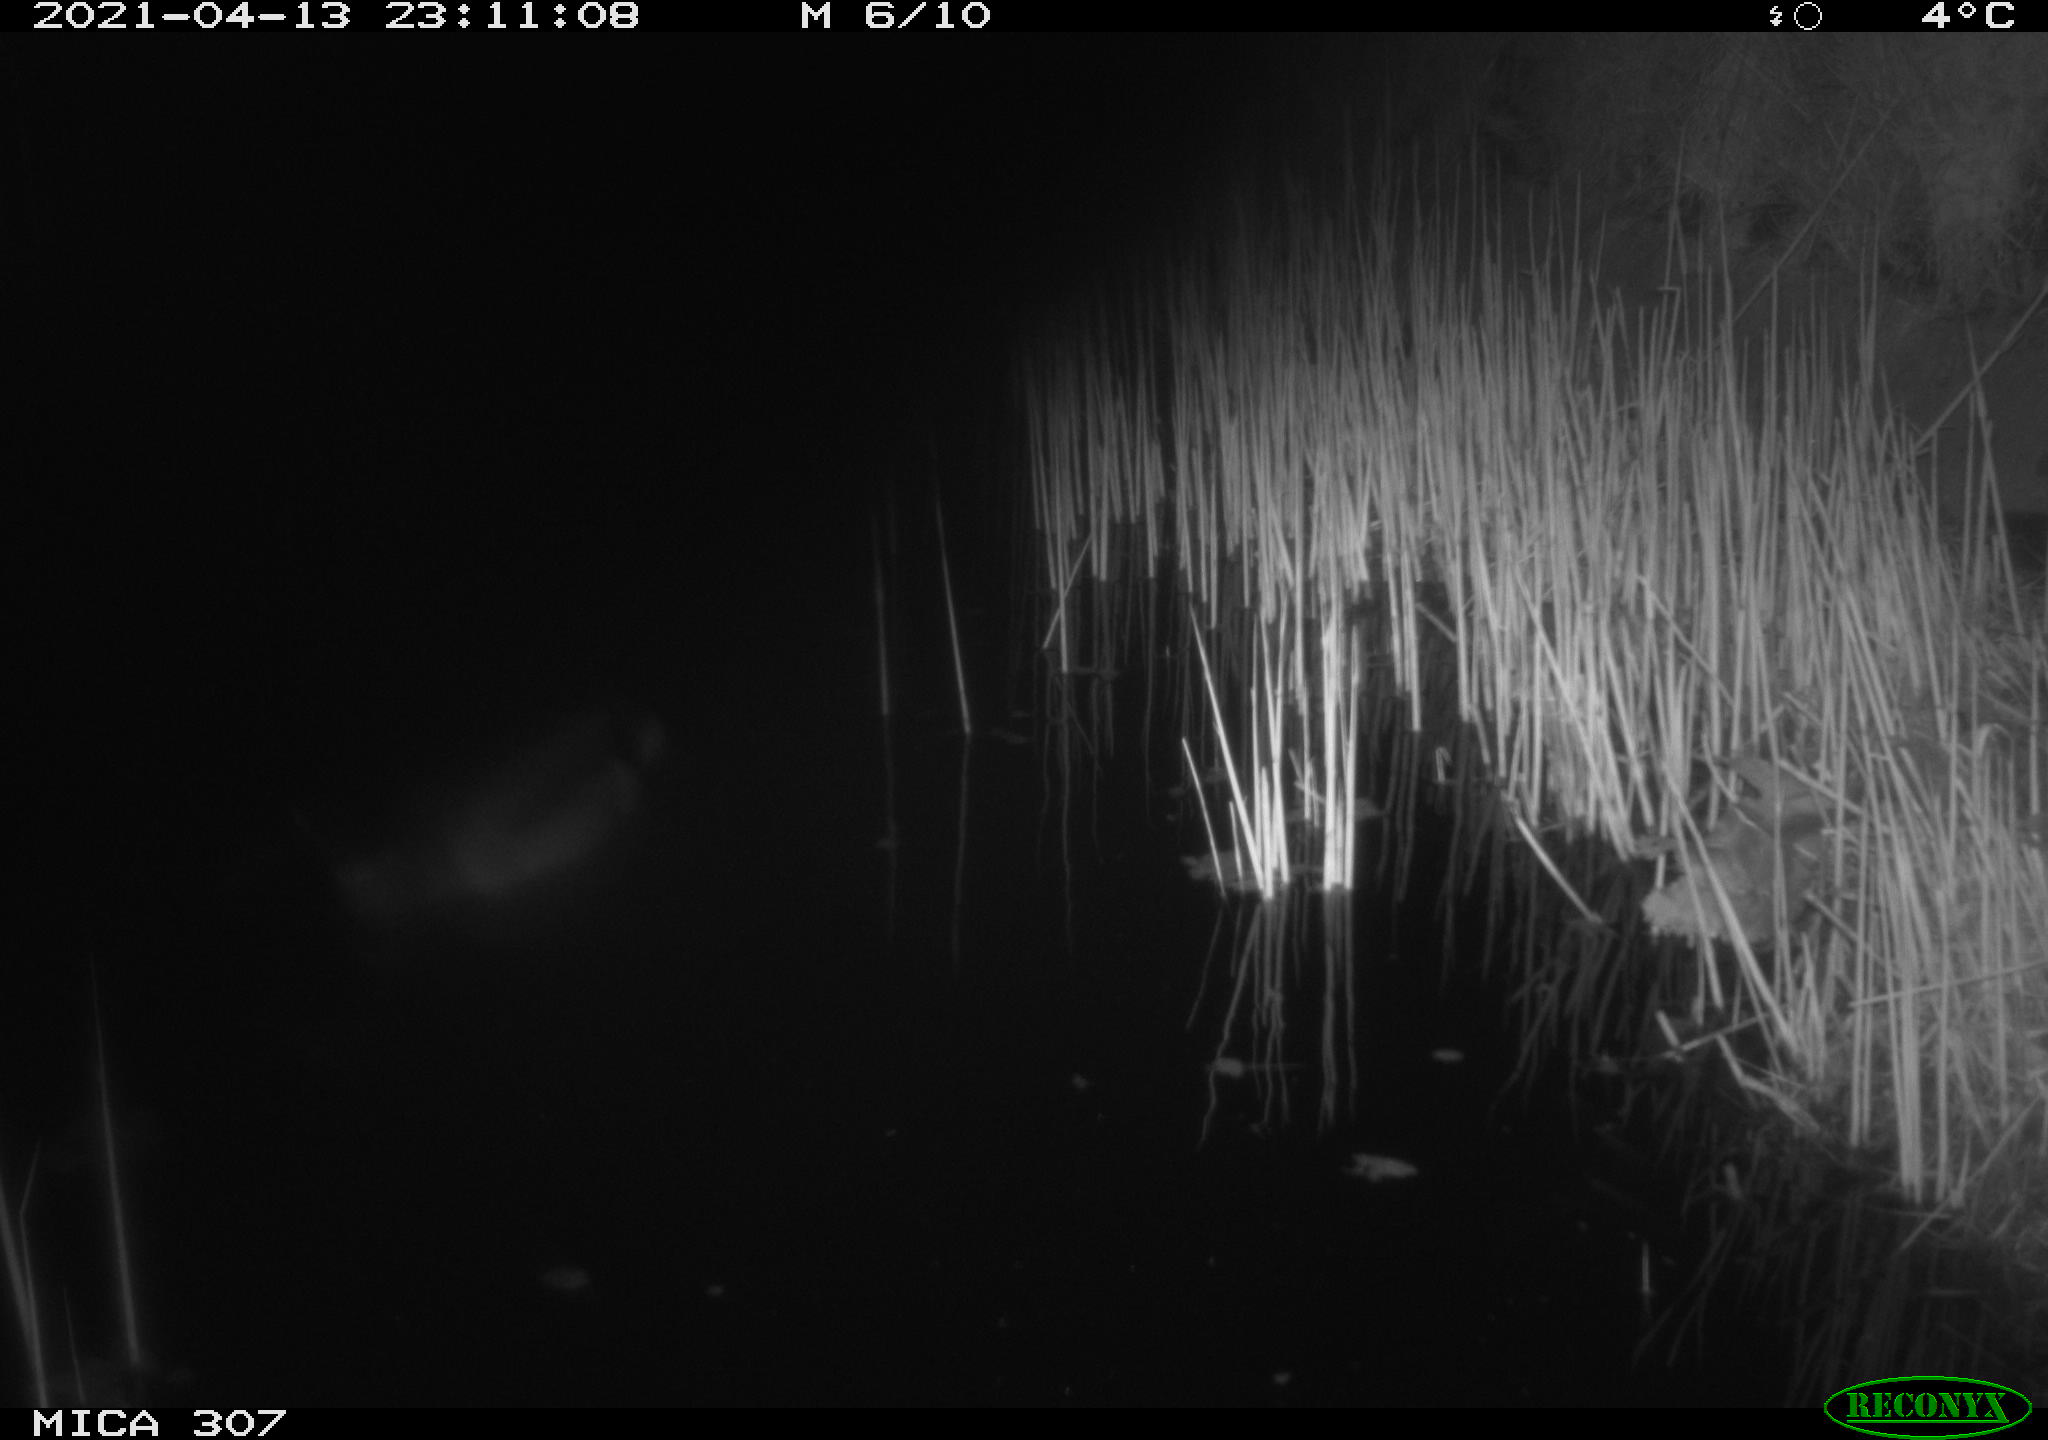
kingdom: Animalia
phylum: Chordata
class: Aves
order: Anseriformes
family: Anatidae
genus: Anas
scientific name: Anas platyrhynchos
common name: Mallard
